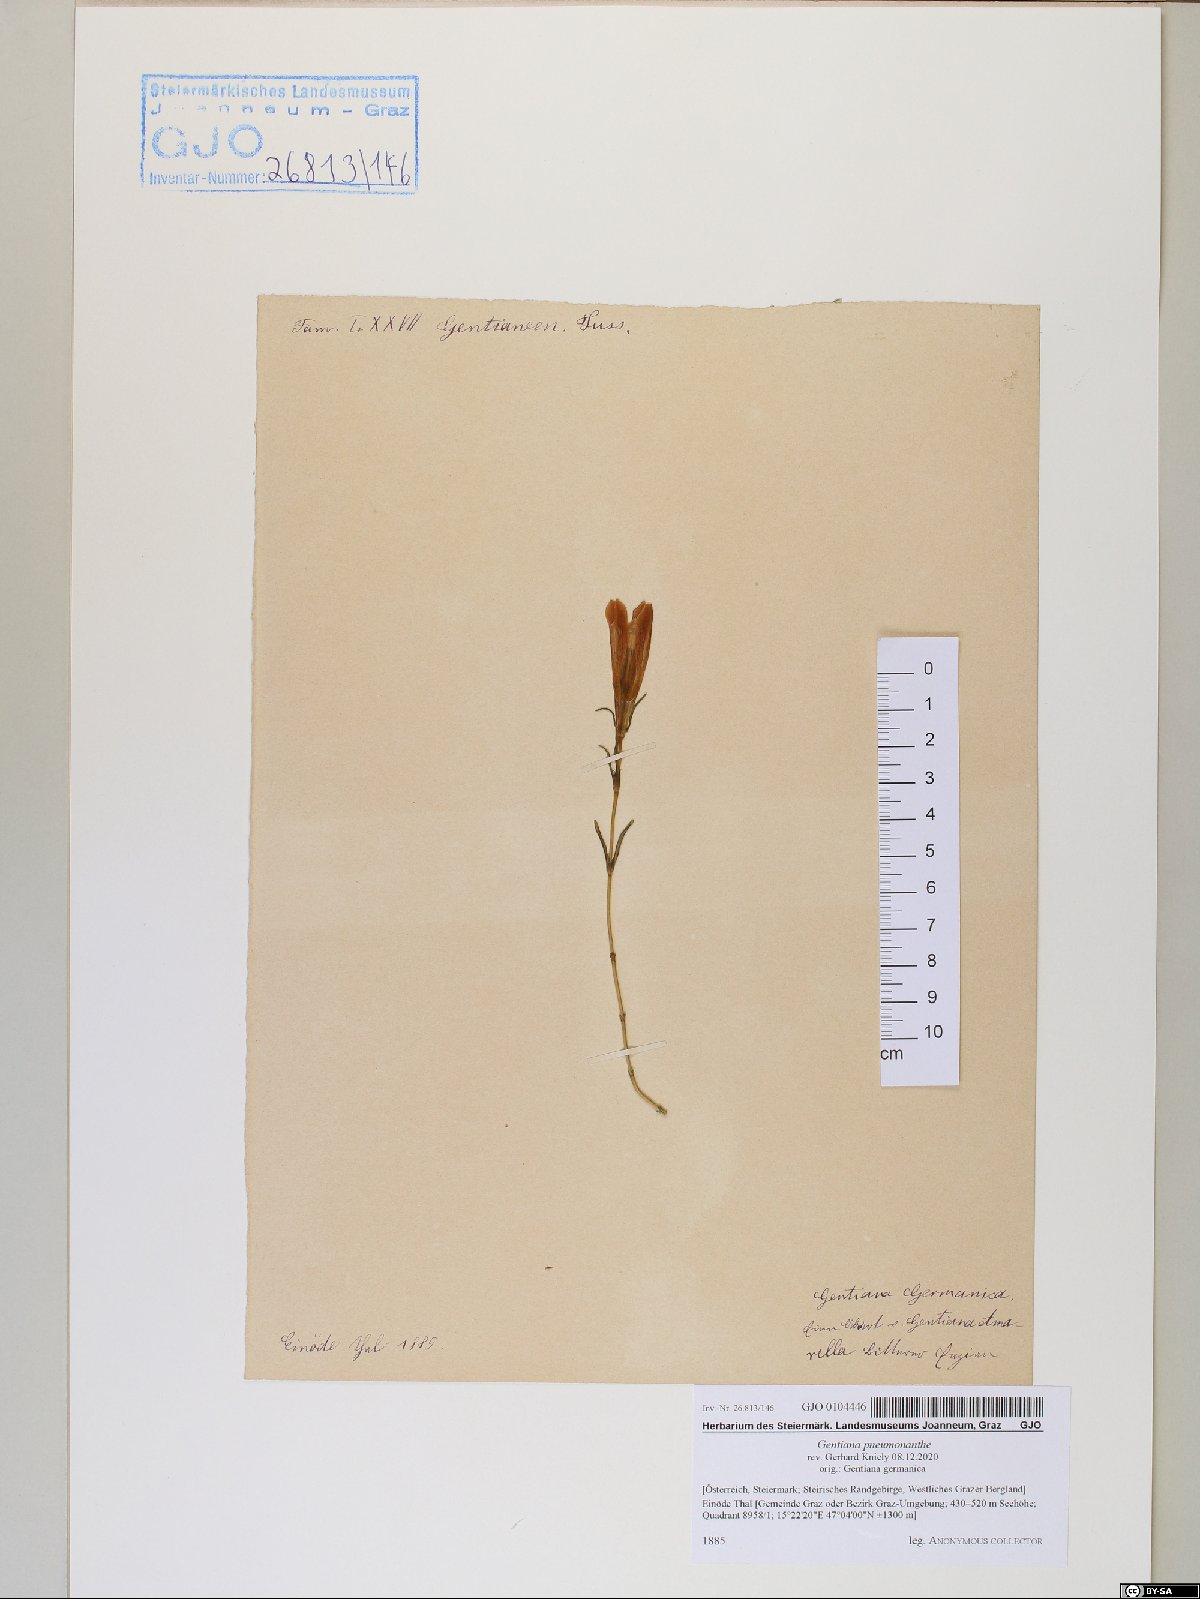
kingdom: Plantae
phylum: Tracheophyta
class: Magnoliopsida
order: Gentianales
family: Gentianaceae
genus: Gentiana
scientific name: Gentiana pneumonanthe
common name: Marsh gentian
